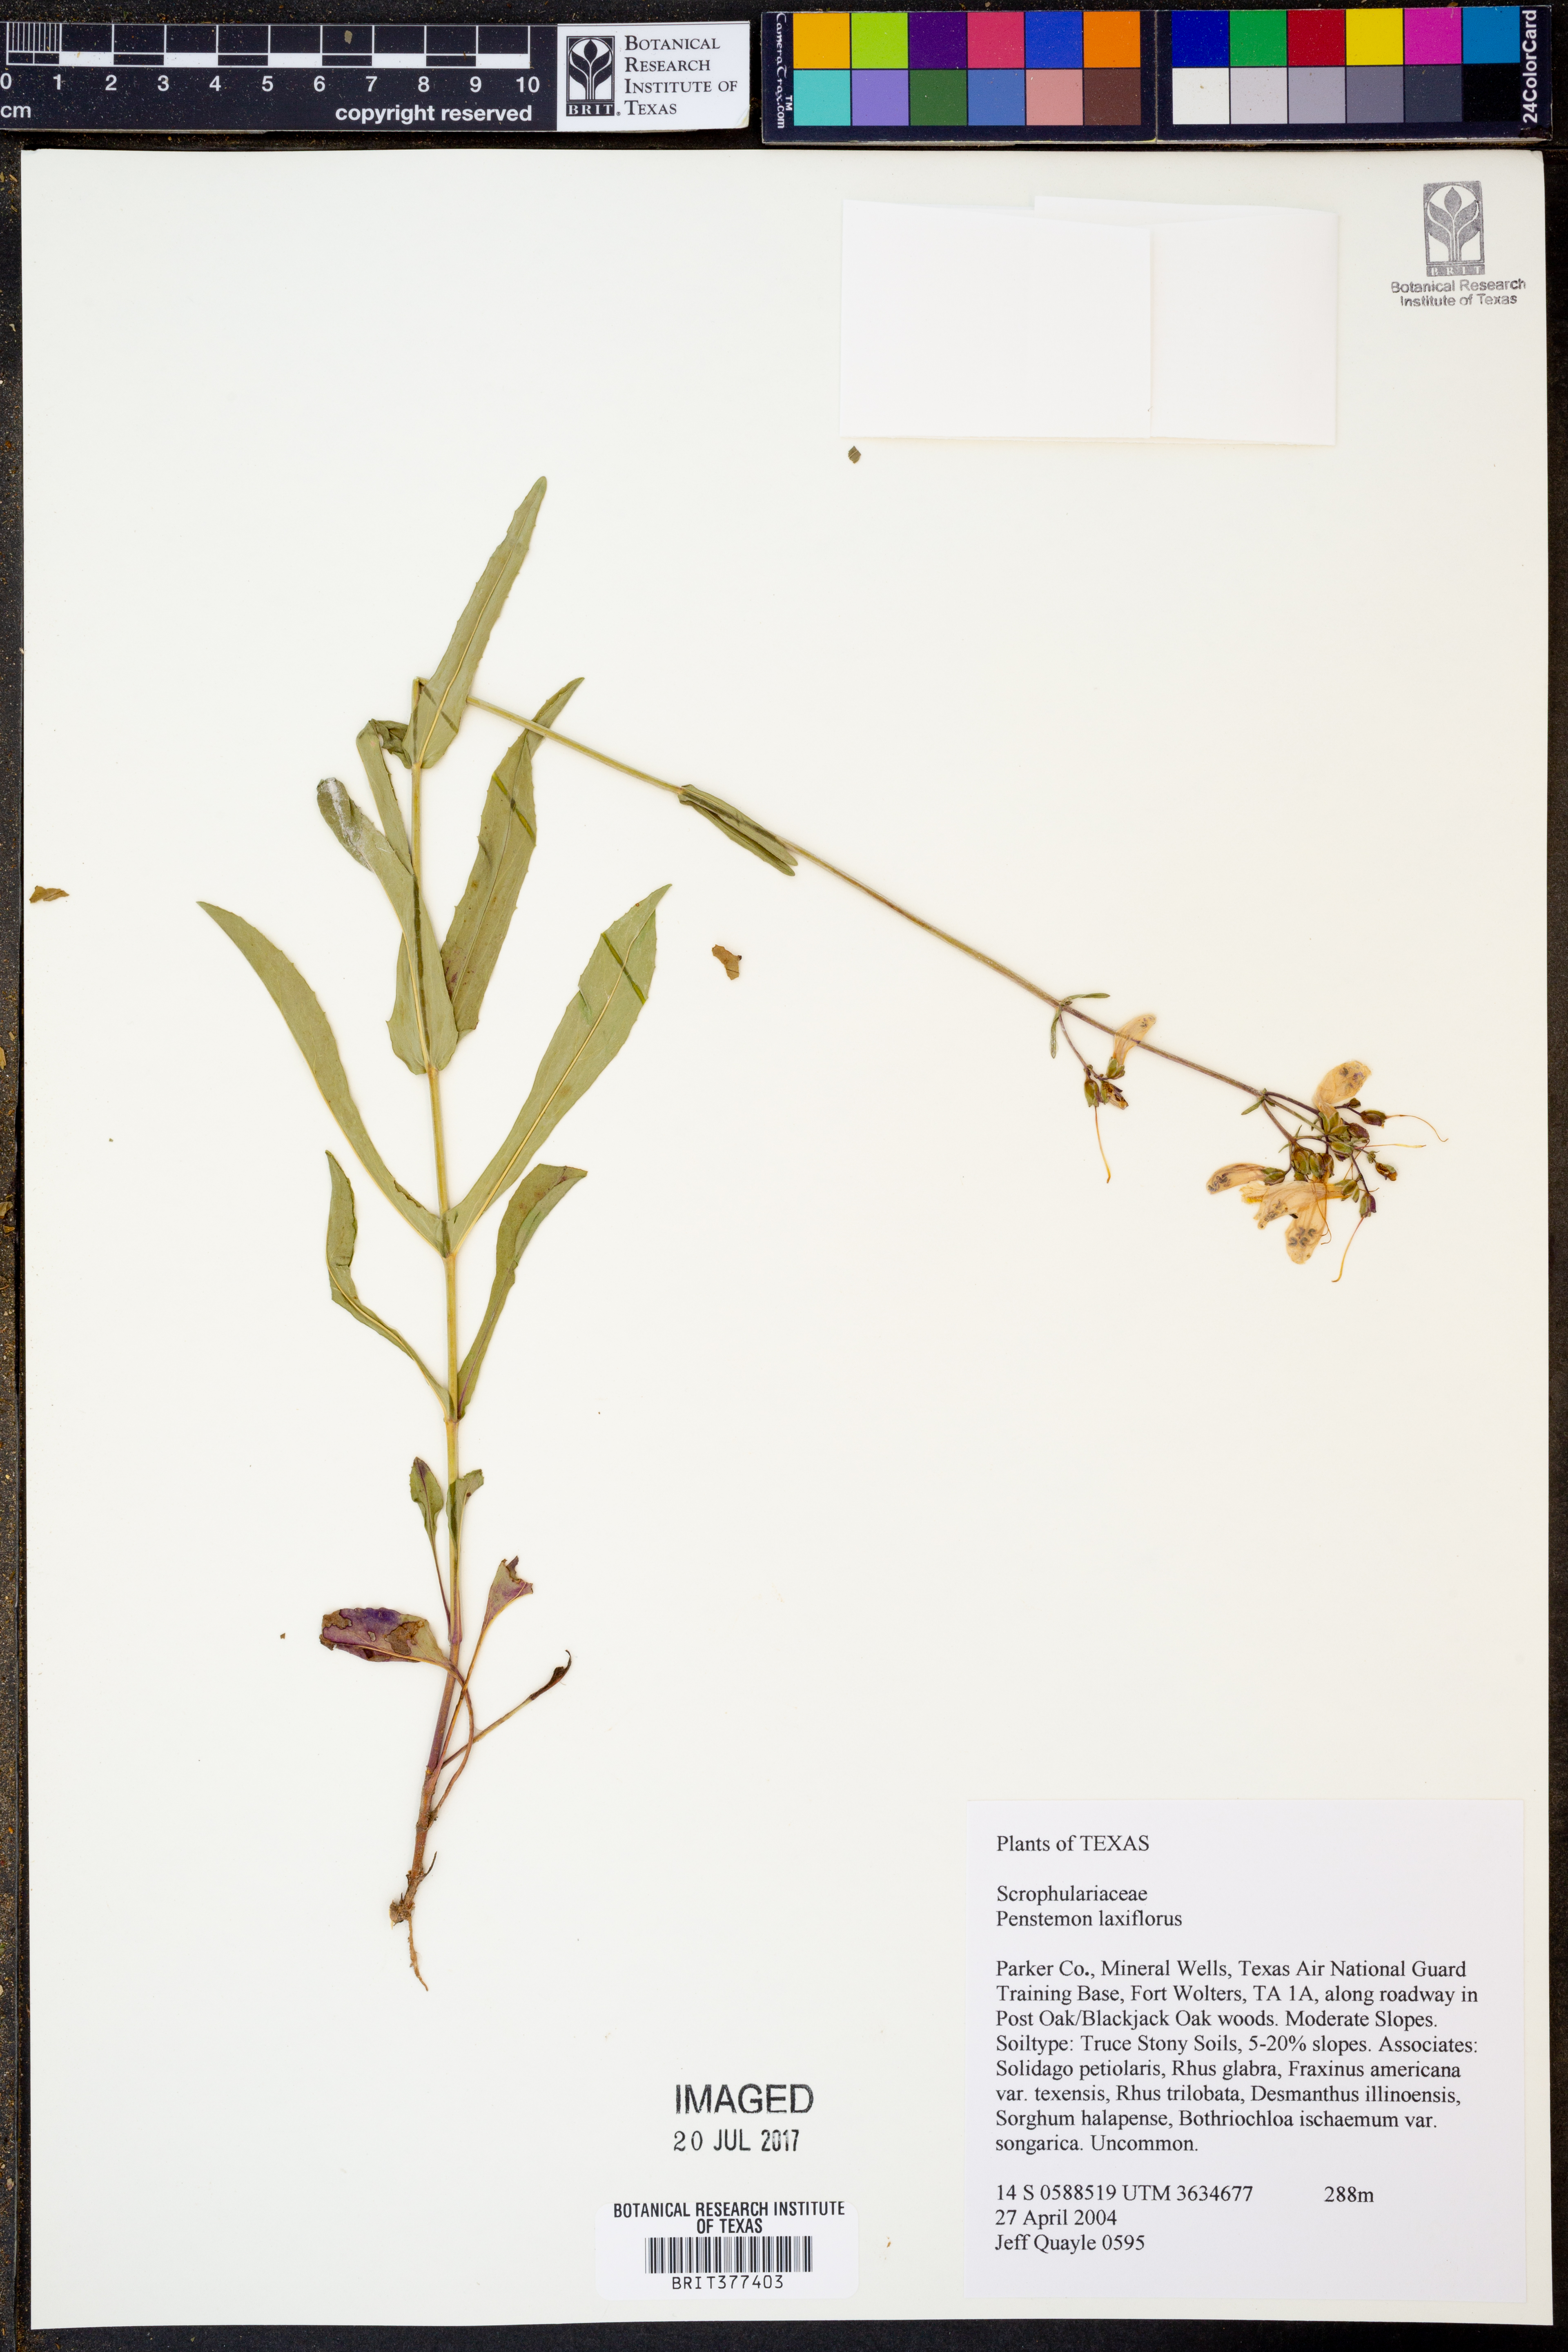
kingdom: Plantae
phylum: Tracheophyta
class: Magnoliopsida
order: Lamiales
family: Plantaginaceae
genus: Penstemon
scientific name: Penstemon laxiflorus
